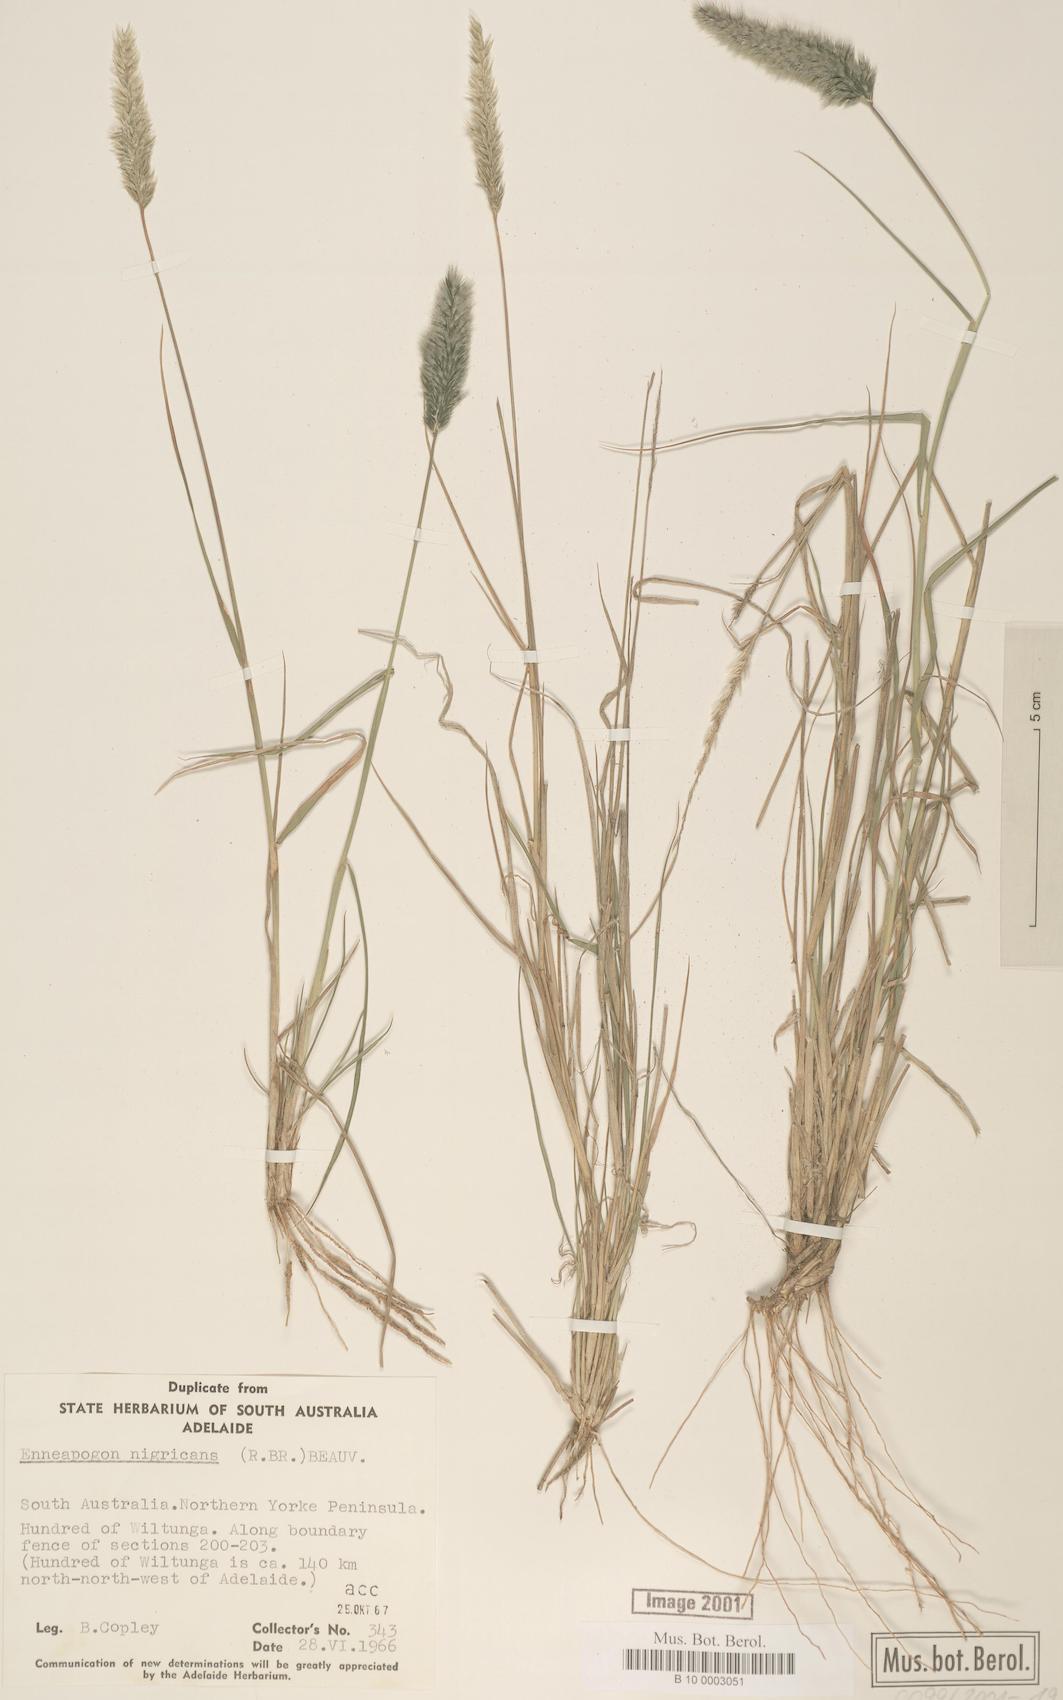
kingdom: Plantae
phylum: Tracheophyta
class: Liliopsida
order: Poales
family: Poaceae
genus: Enneapogon
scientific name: Enneapogon nigricans
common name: Pappus grass
